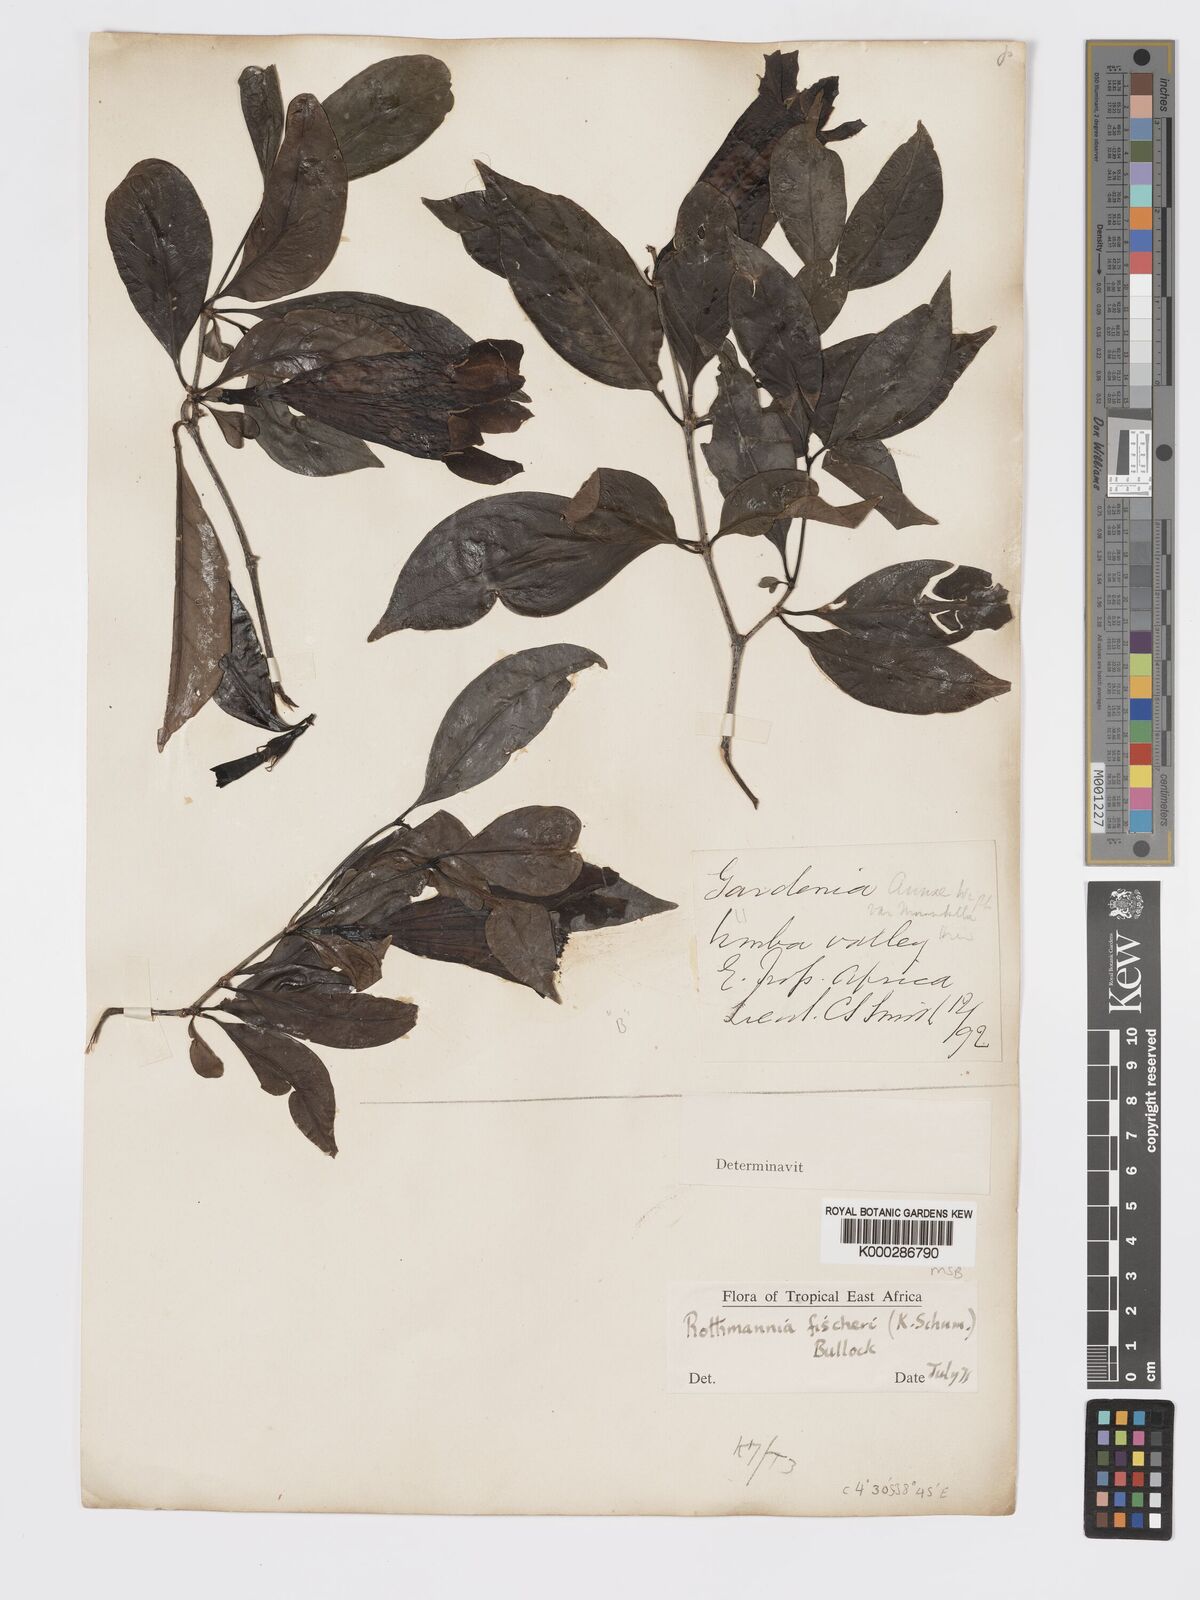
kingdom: Plantae
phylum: Tracheophyta
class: Magnoliopsida
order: Gentianales
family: Rubiaceae
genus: Rothmannia
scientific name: Rothmannia ravae
